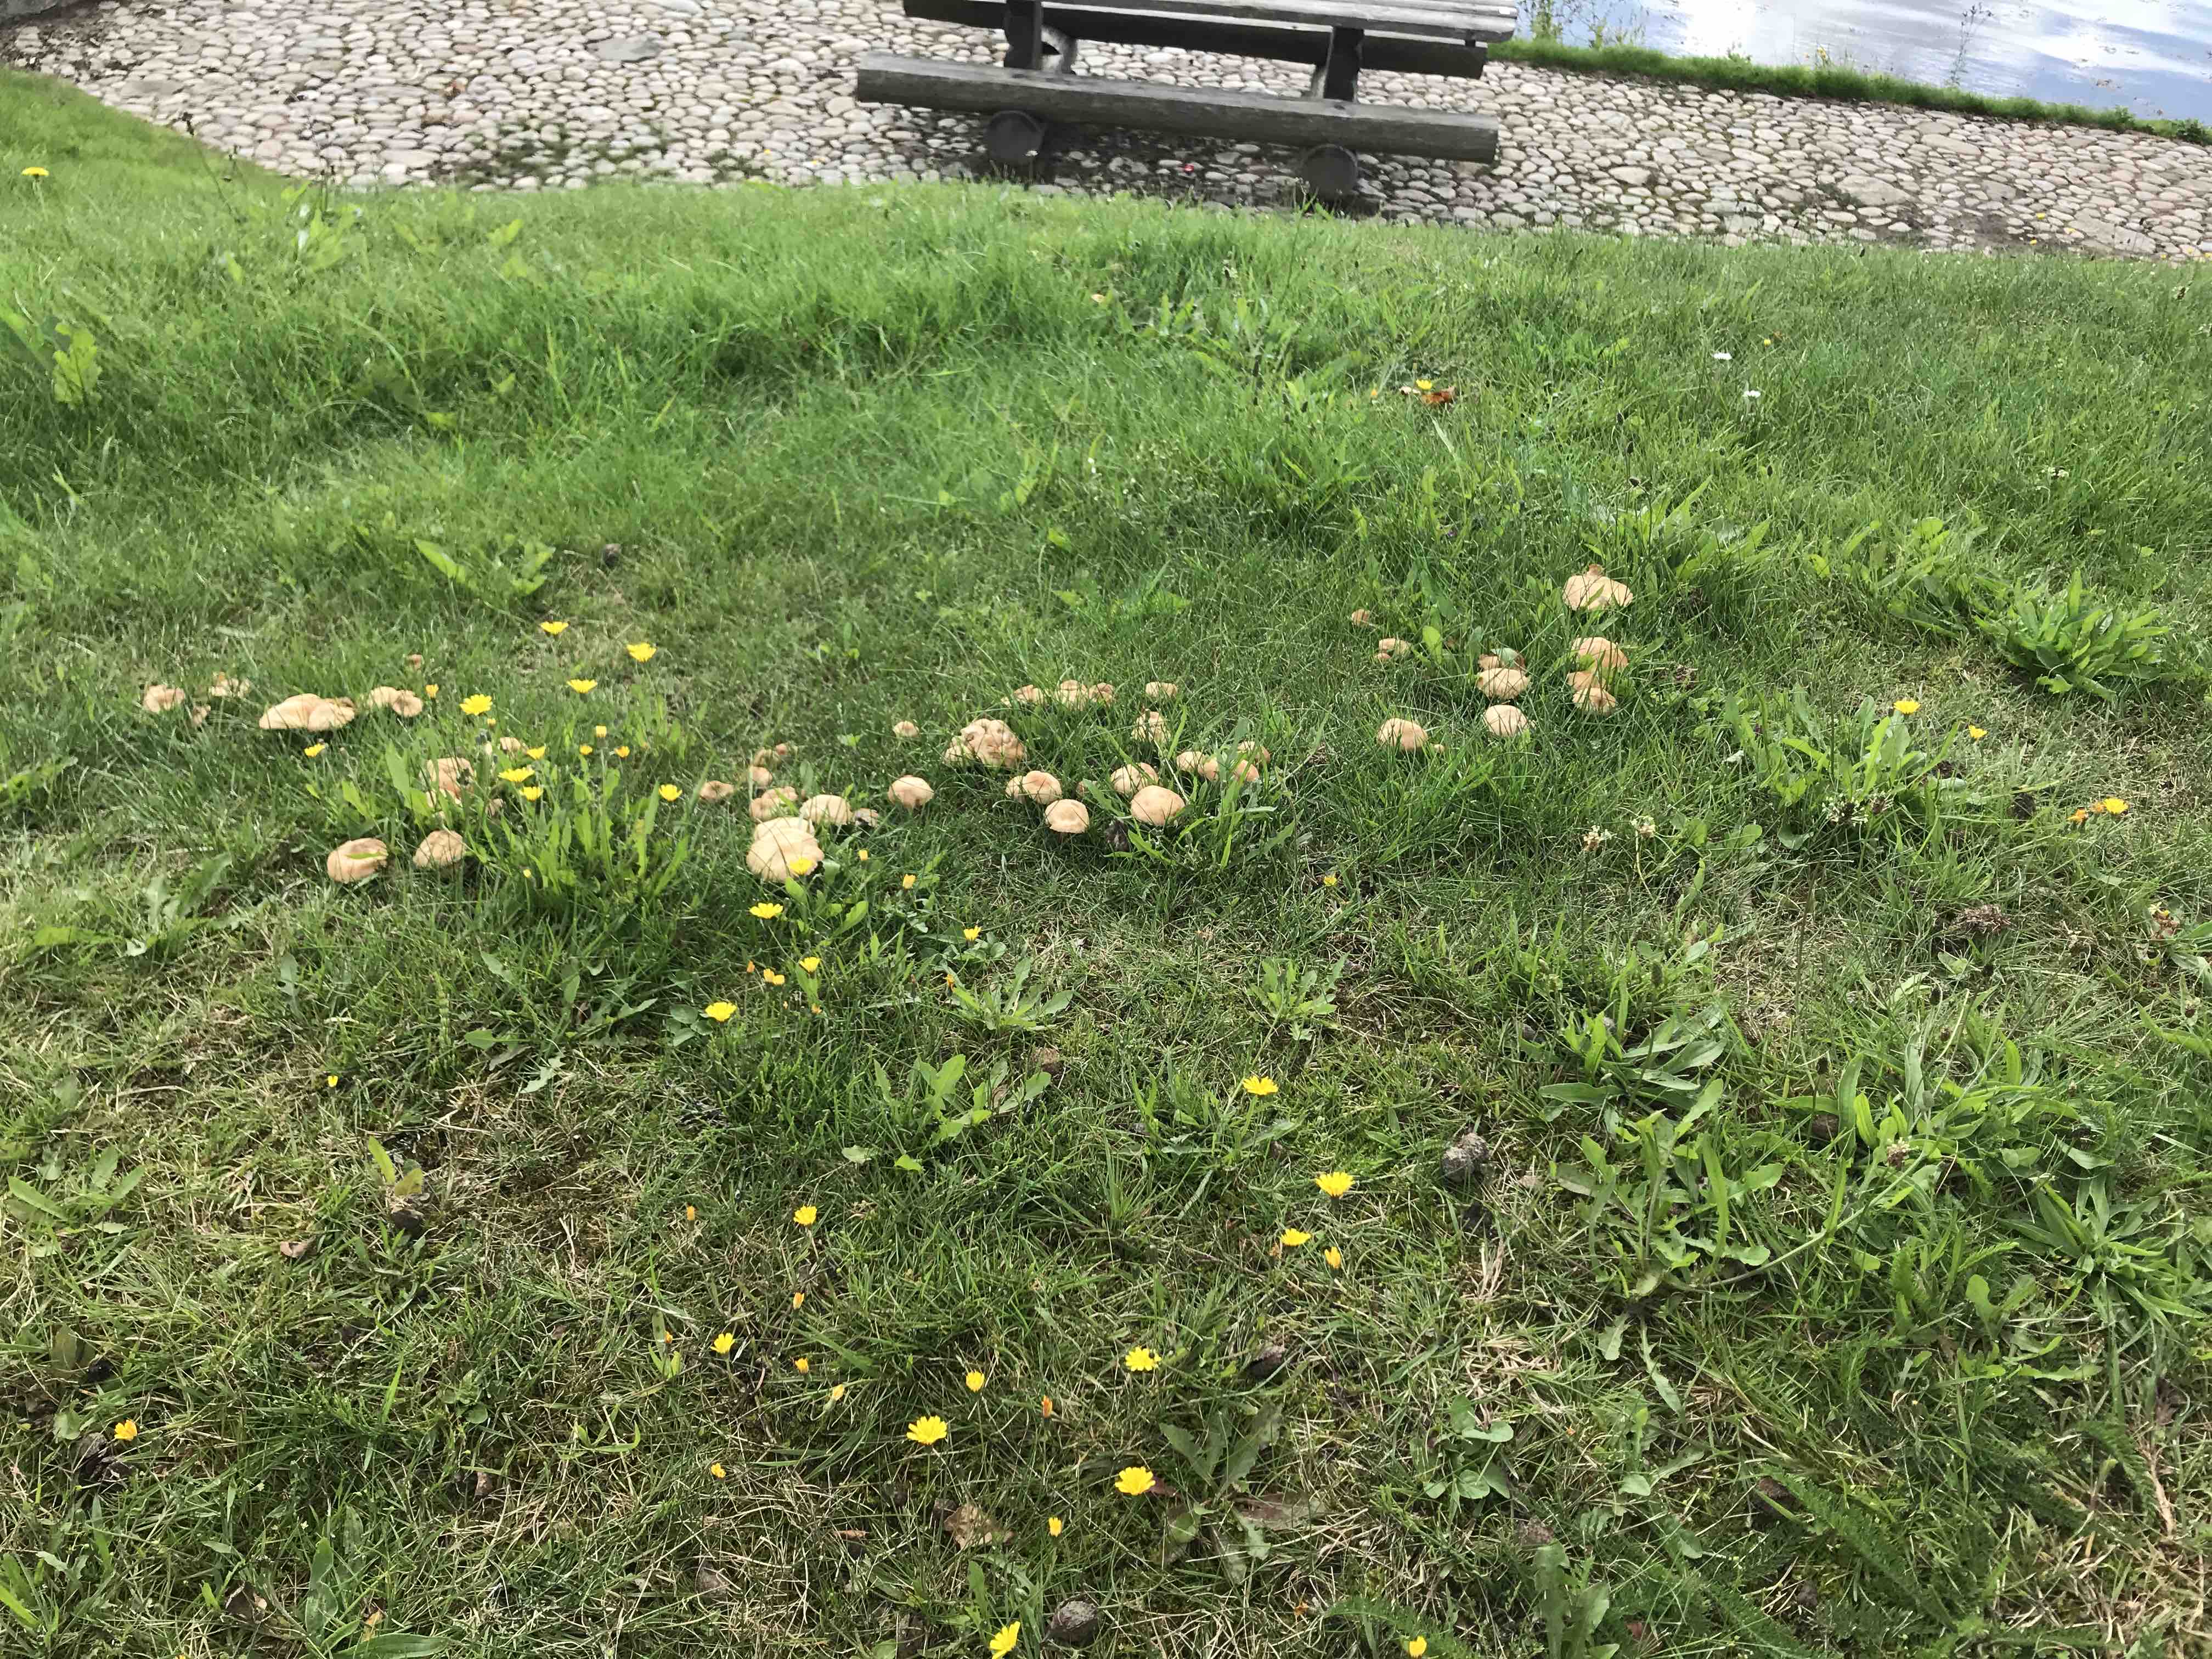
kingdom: Fungi
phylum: Basidiomycota
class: Agaricomycetes
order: Agaricales
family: Marasmiaceae
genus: Marasmius
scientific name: Marasmius oreades
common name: elledans-bruskhat
